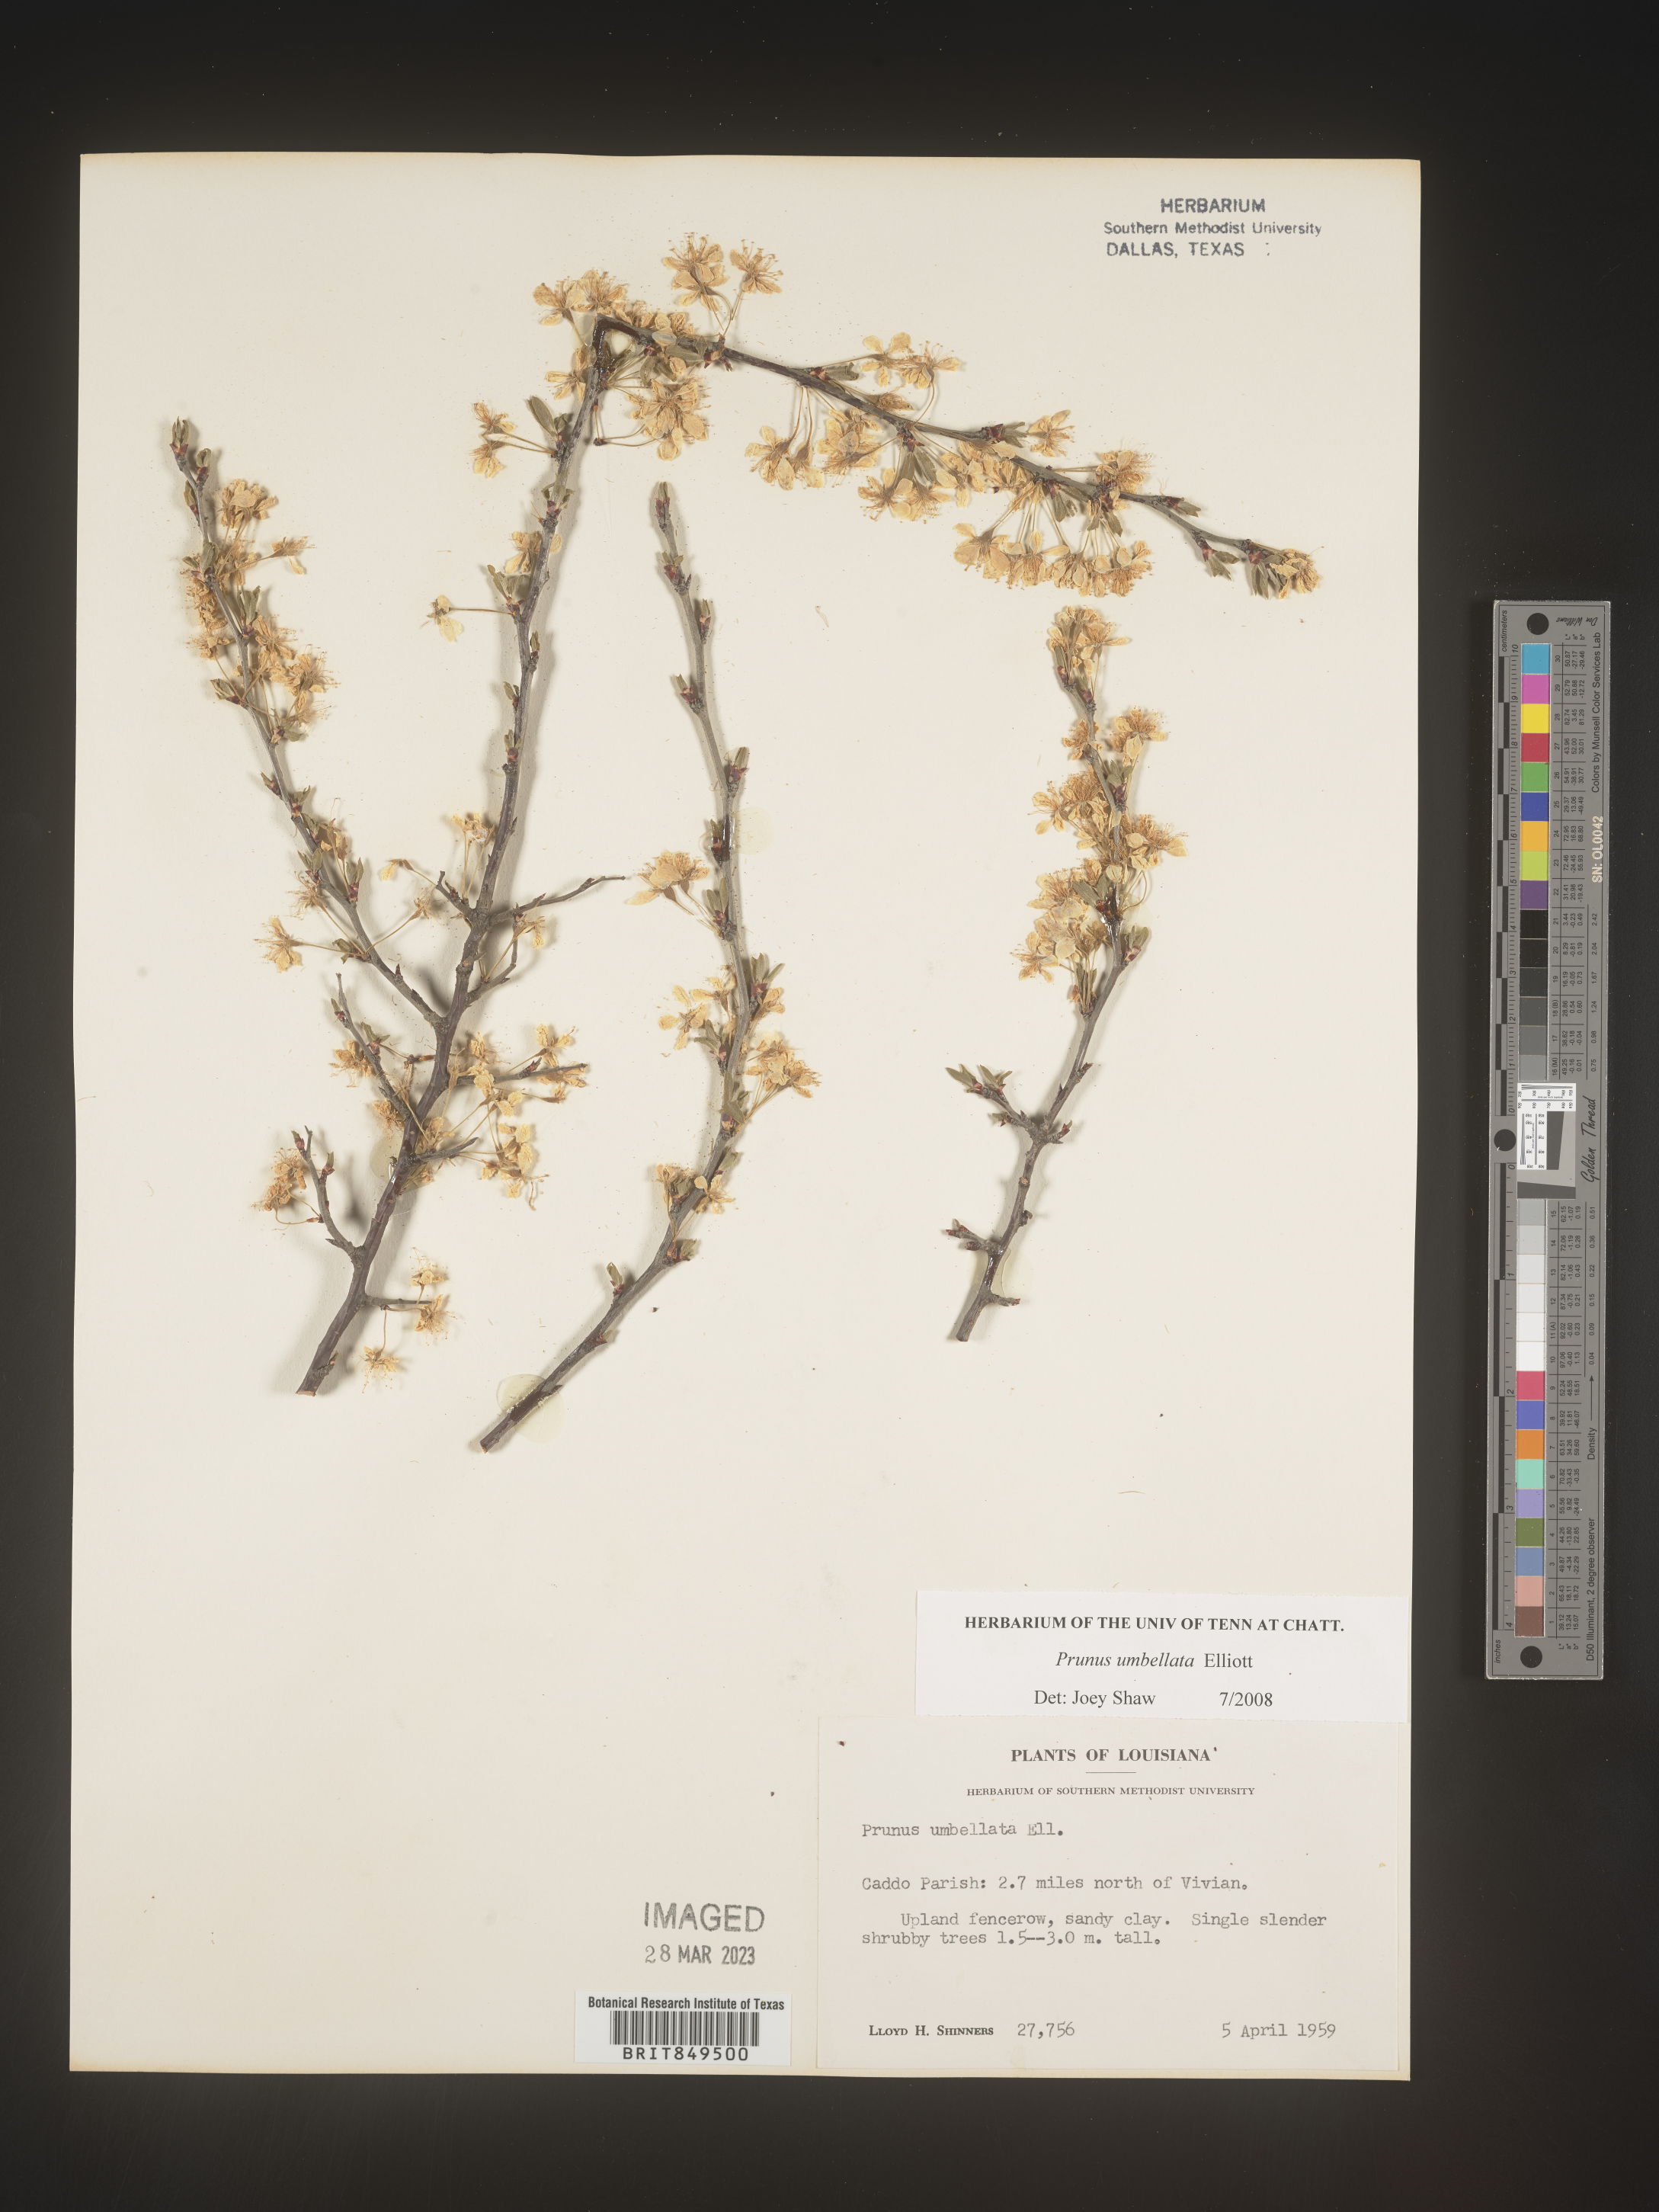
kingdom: Plantae
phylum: Tracheophyta
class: Magnoliopsida
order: Rosales
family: Rosaceae
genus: Prunus
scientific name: Prunus umbellata
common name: Allegheny plum
